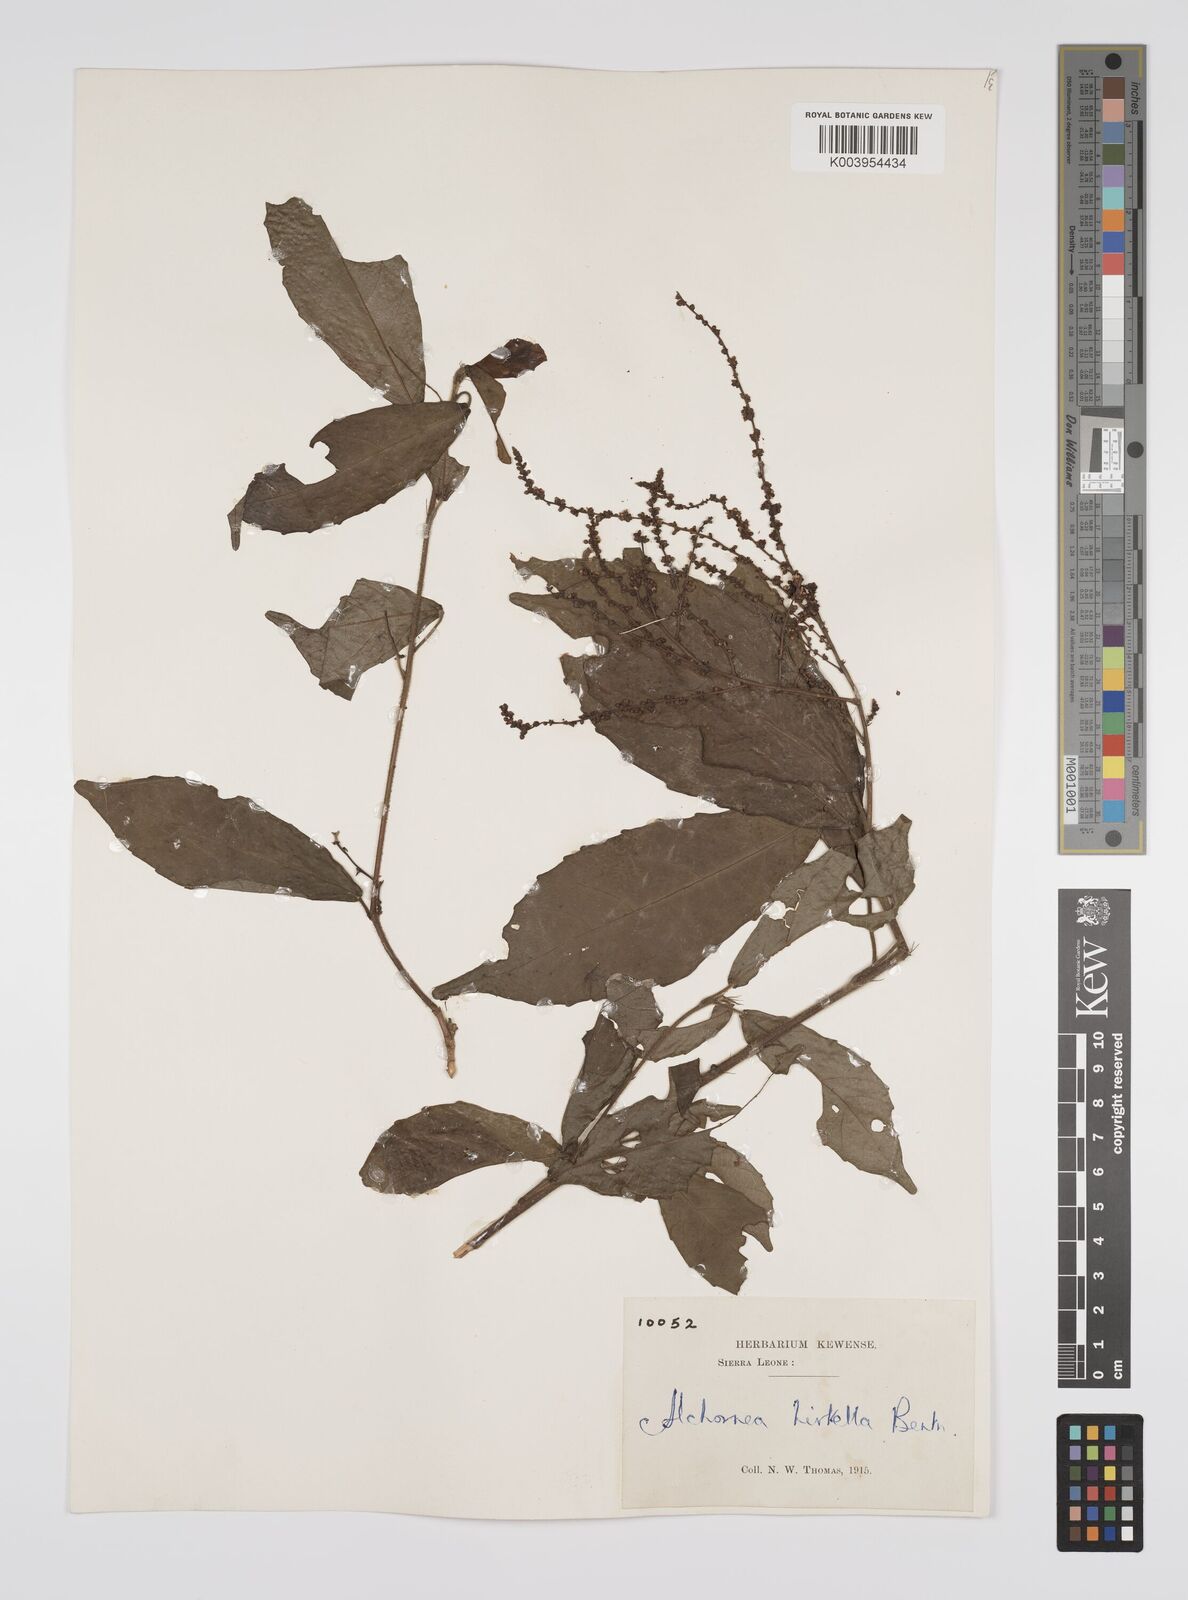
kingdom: Plantae
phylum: Tracheophyta
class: Magnoliopsida
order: Malpighiales
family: Euphorbiaceae
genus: Alchornea
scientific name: Alchornea hirtella
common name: Forest bead-string
